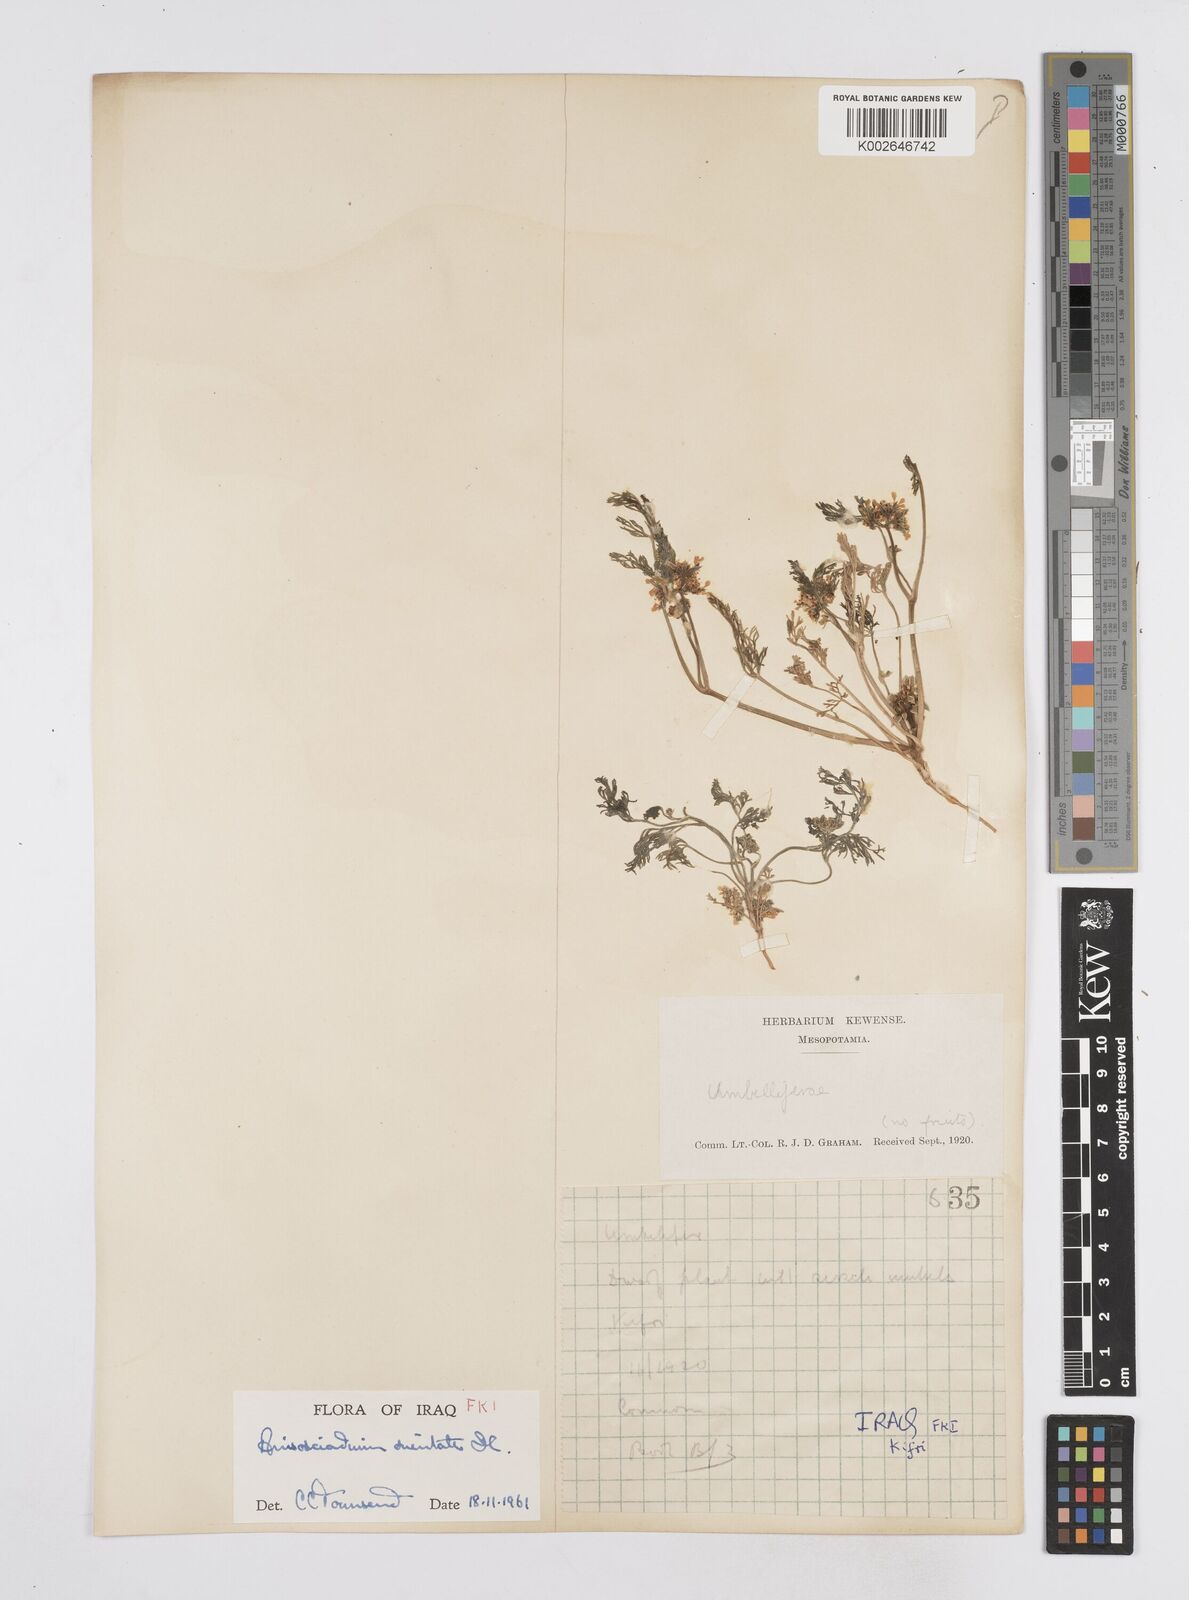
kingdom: Plantae
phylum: Tracheophyta
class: Magnoliopsida
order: Apiales
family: Apiaceae
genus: Anisosciadium
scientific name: Anisosciadium orientale
